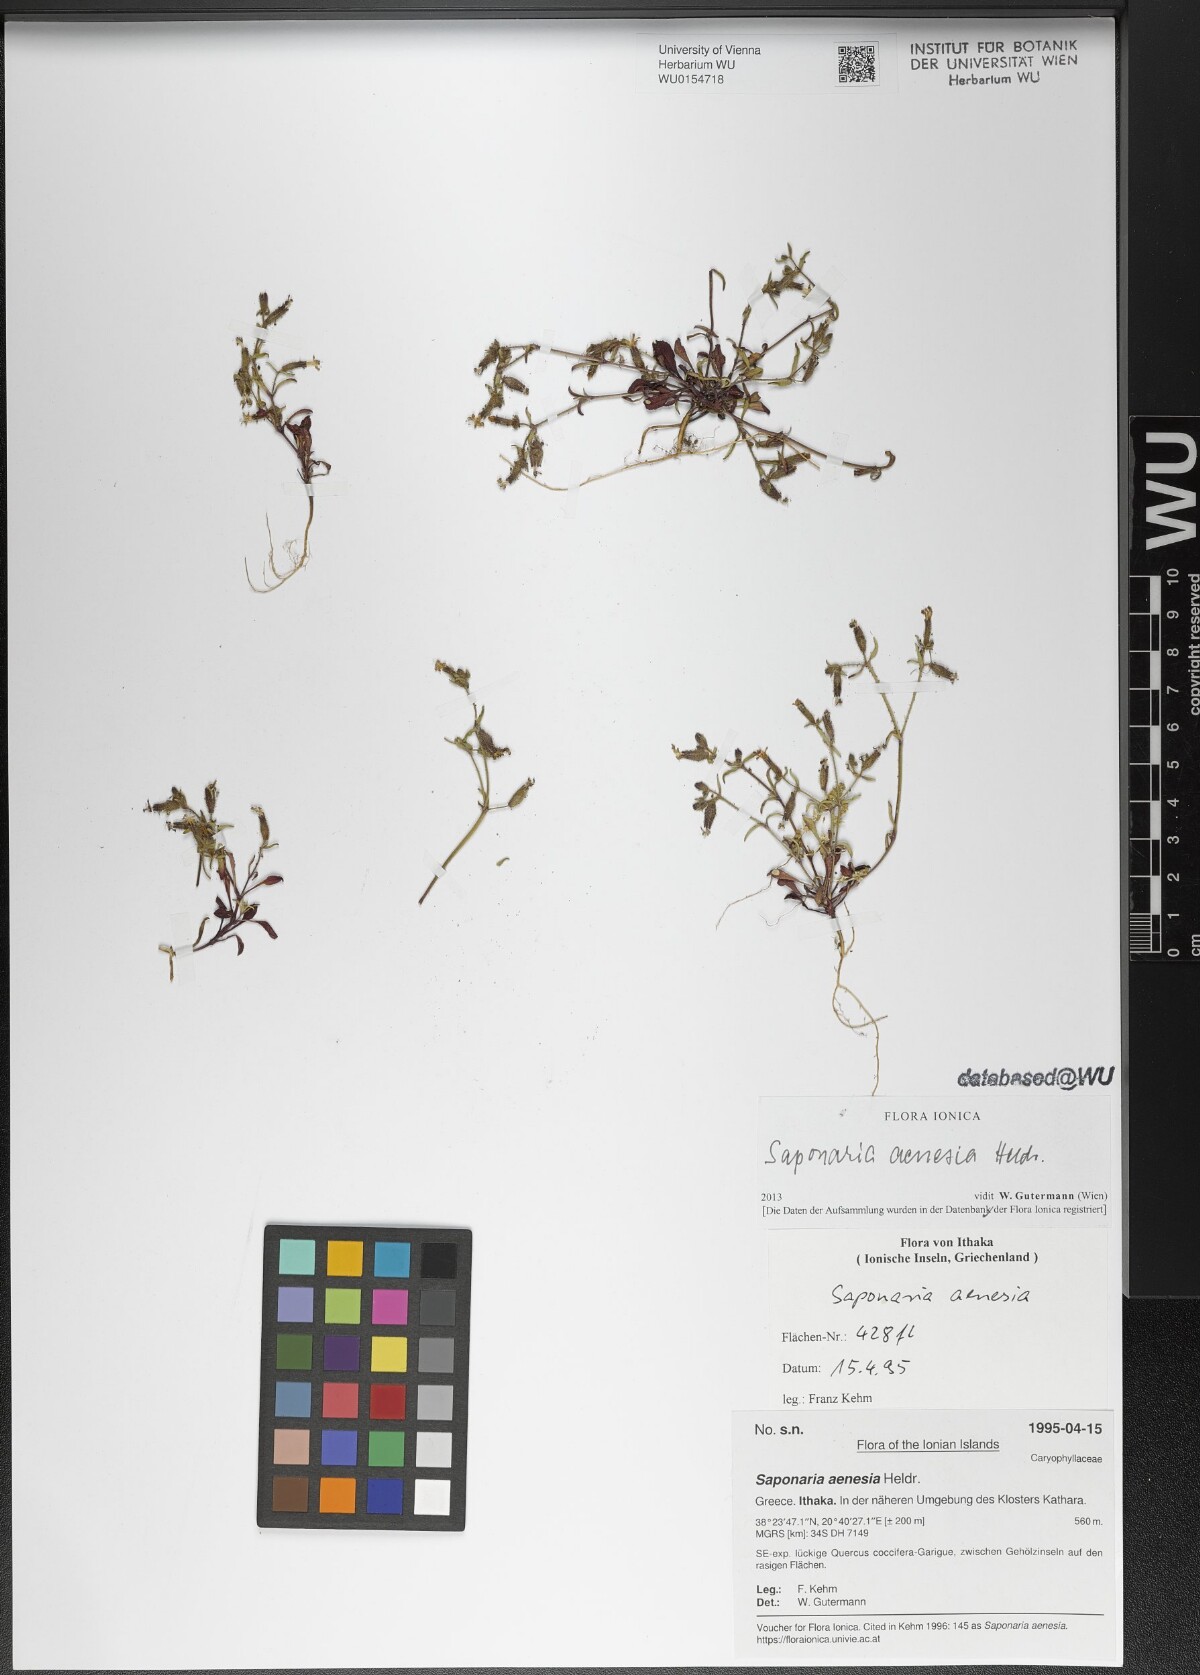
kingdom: Plantae
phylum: Tracheophyta
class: Magnoliopsida
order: Caryophyllales
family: Caryophyllaceae
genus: Saponaria
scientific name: Saponaria aenesia
